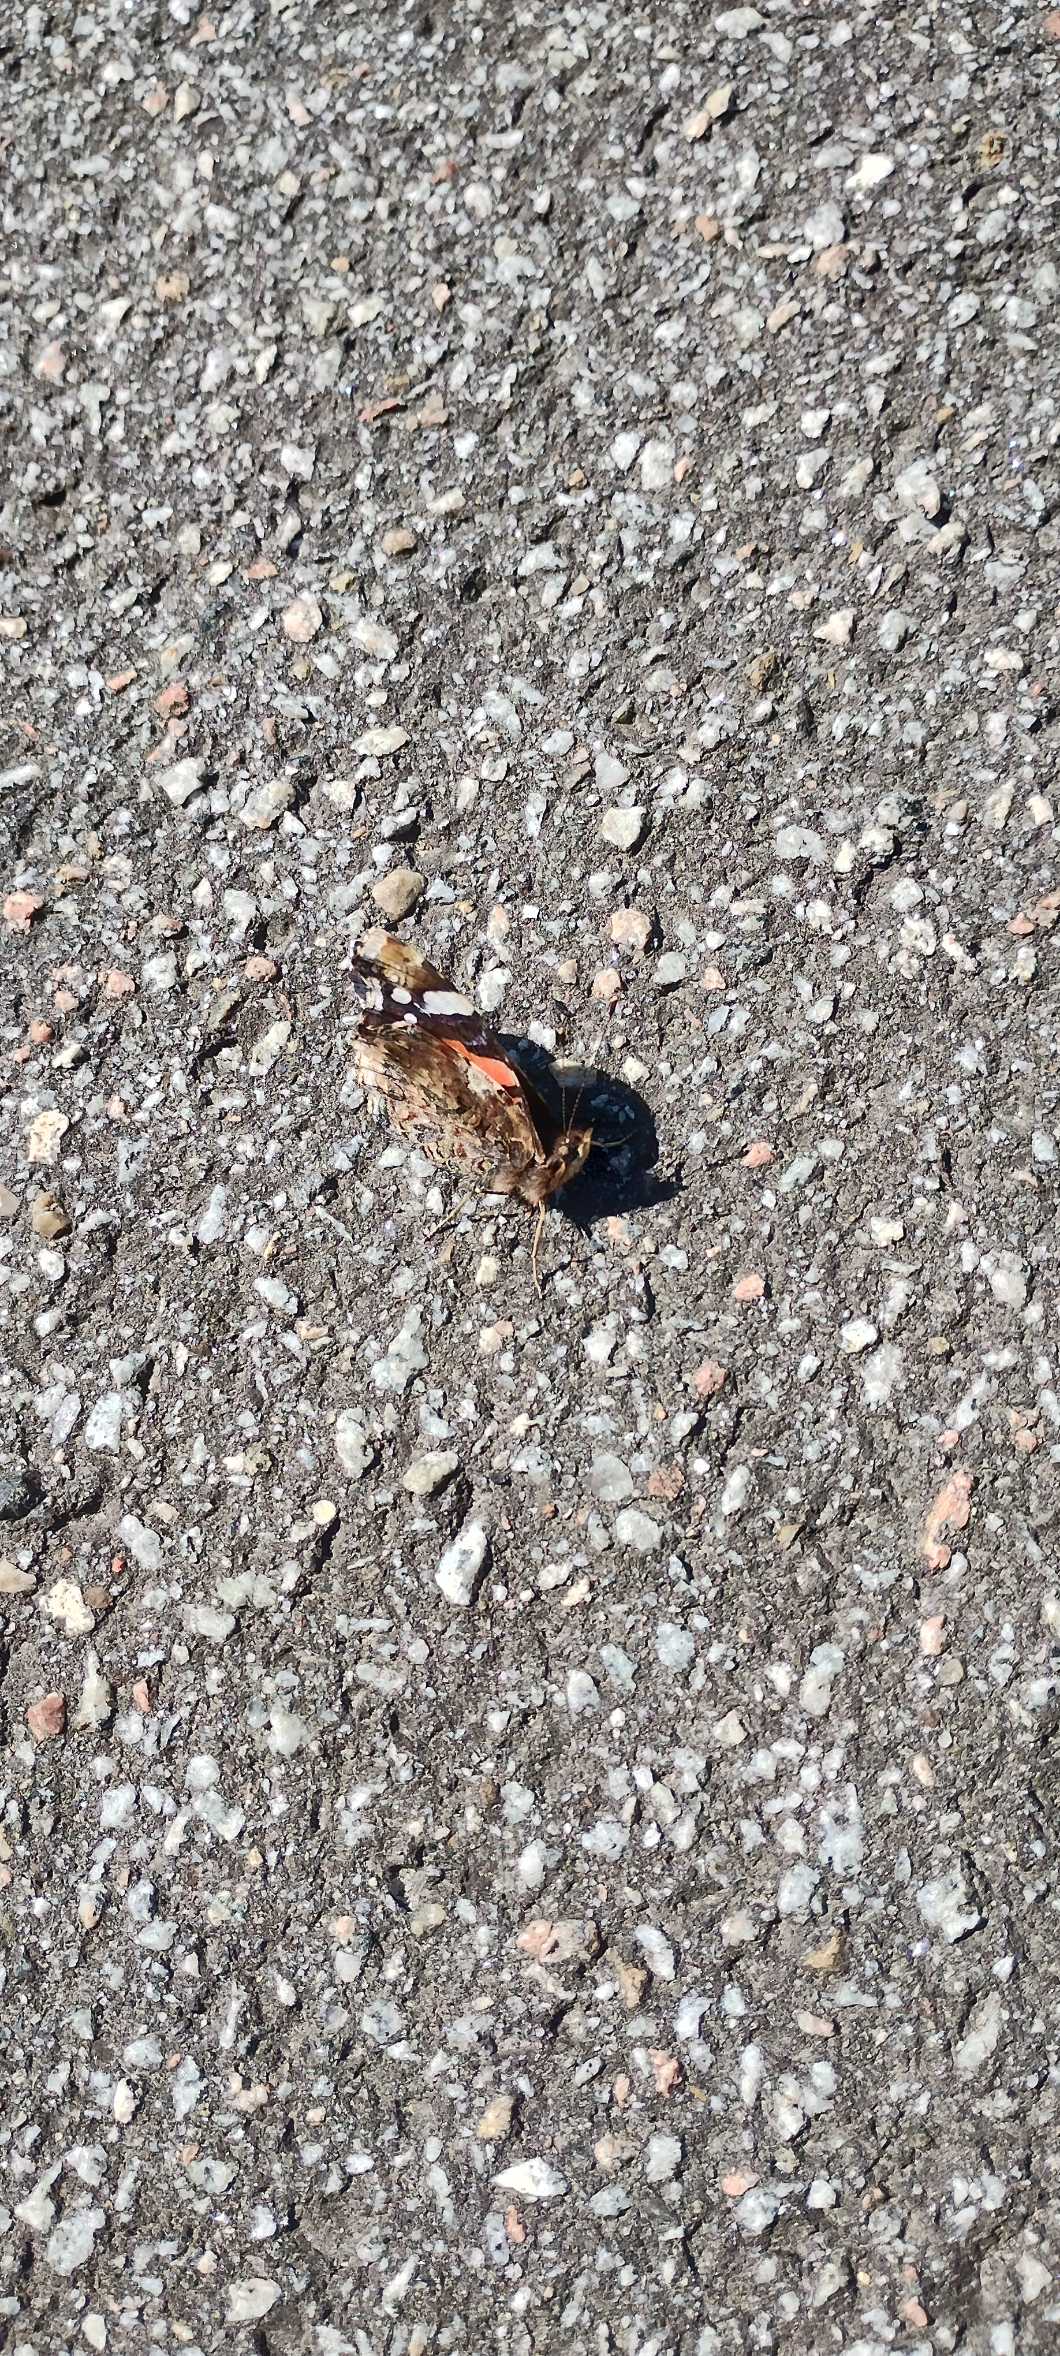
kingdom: Animalia
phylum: Arthropoda
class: Insecta
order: Lepidoptera
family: Nymphalidae
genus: Vanessa
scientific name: Vanessa atalanta
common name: Admiral
